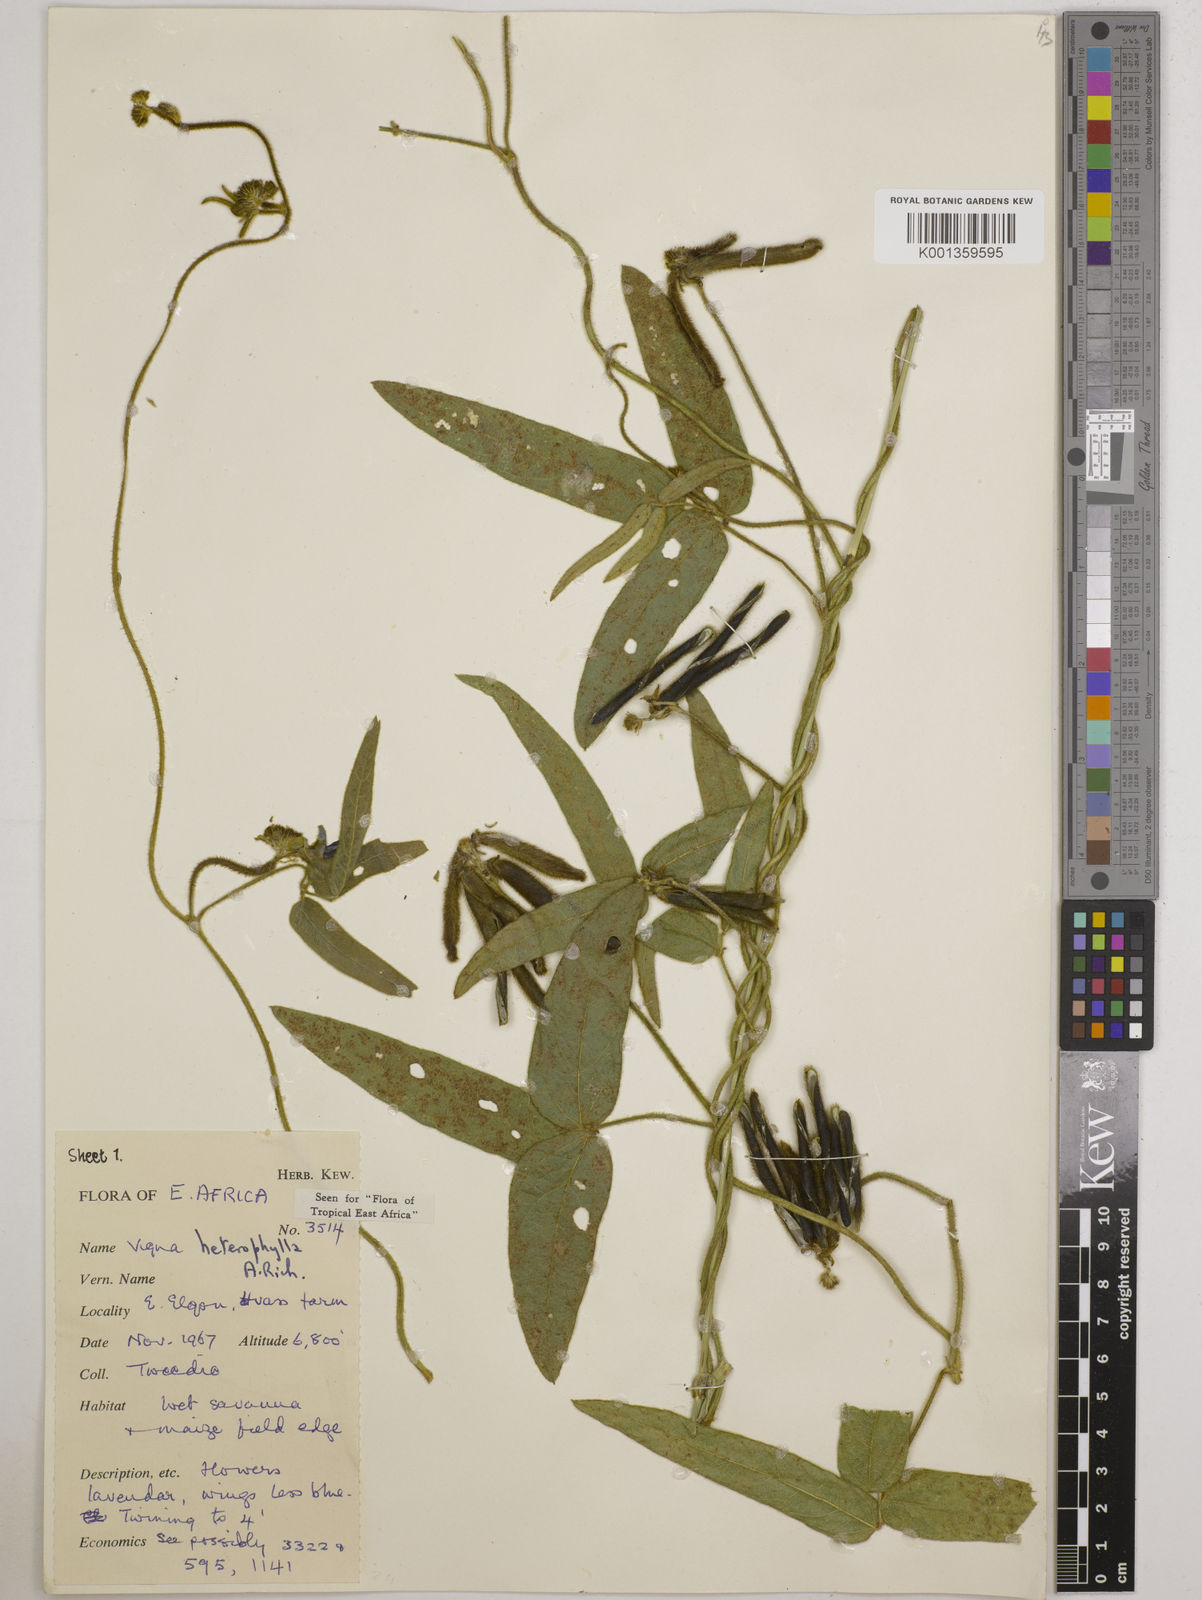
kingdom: Plantae
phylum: Tracheophyta
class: Magnoliopsida
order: Fabales
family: Fabaceae
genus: Vigna
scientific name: Vigna heterophylla
